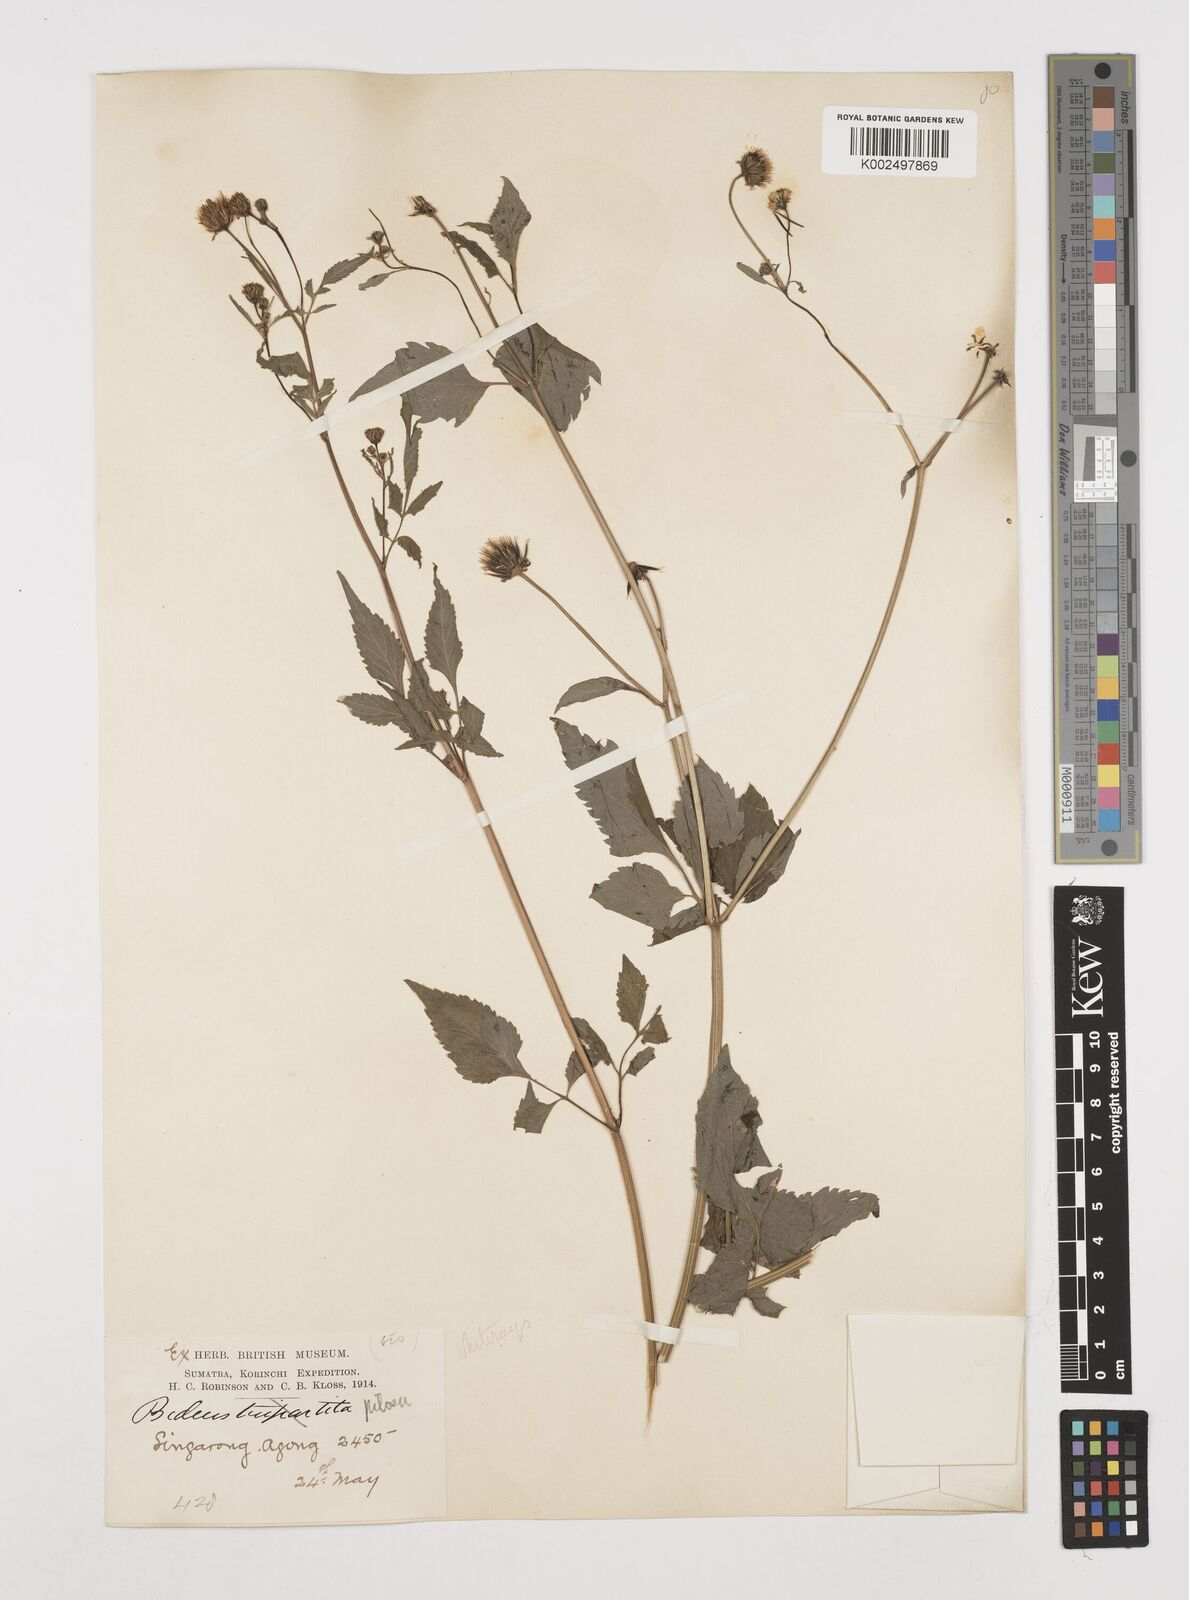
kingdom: Plantae
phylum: Tracheophyta
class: Magnoliopsida
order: Asterales
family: Asteraceae
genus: Bidens
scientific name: Bidens pilosa
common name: Black-jack
